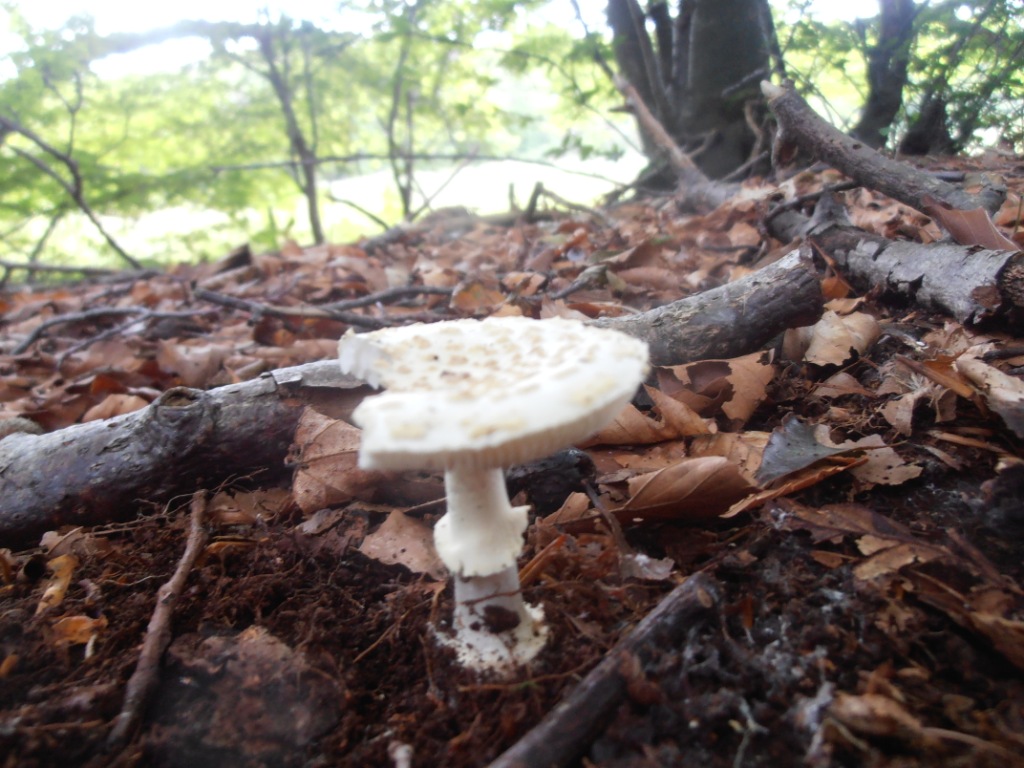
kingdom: Fungi
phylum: Basidiomycota
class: Agaricomycetes
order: Agaricales
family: Amanitaceae
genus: Amanita
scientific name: Amanita citrina
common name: False death-cap
